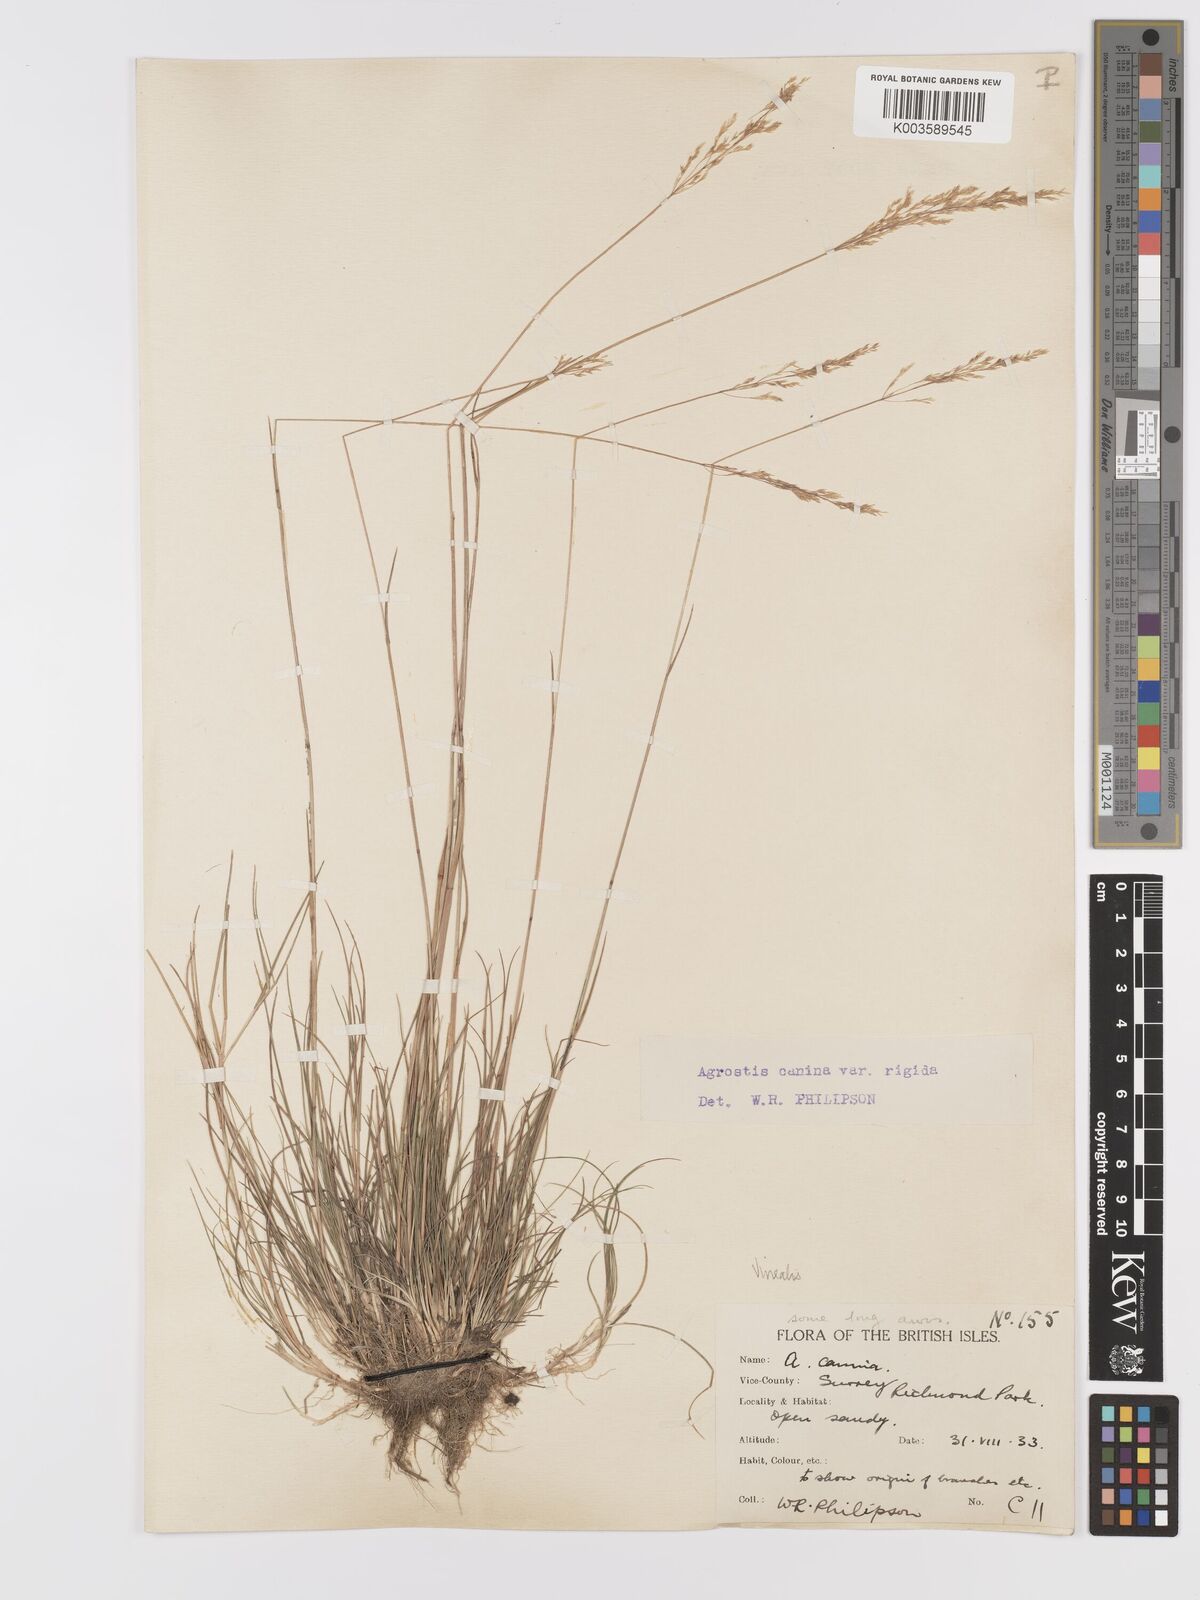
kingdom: Plantae
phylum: Tracheophyta
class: Liliopsida
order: Poales
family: Poaceae
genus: Agrostis
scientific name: Agrostis
